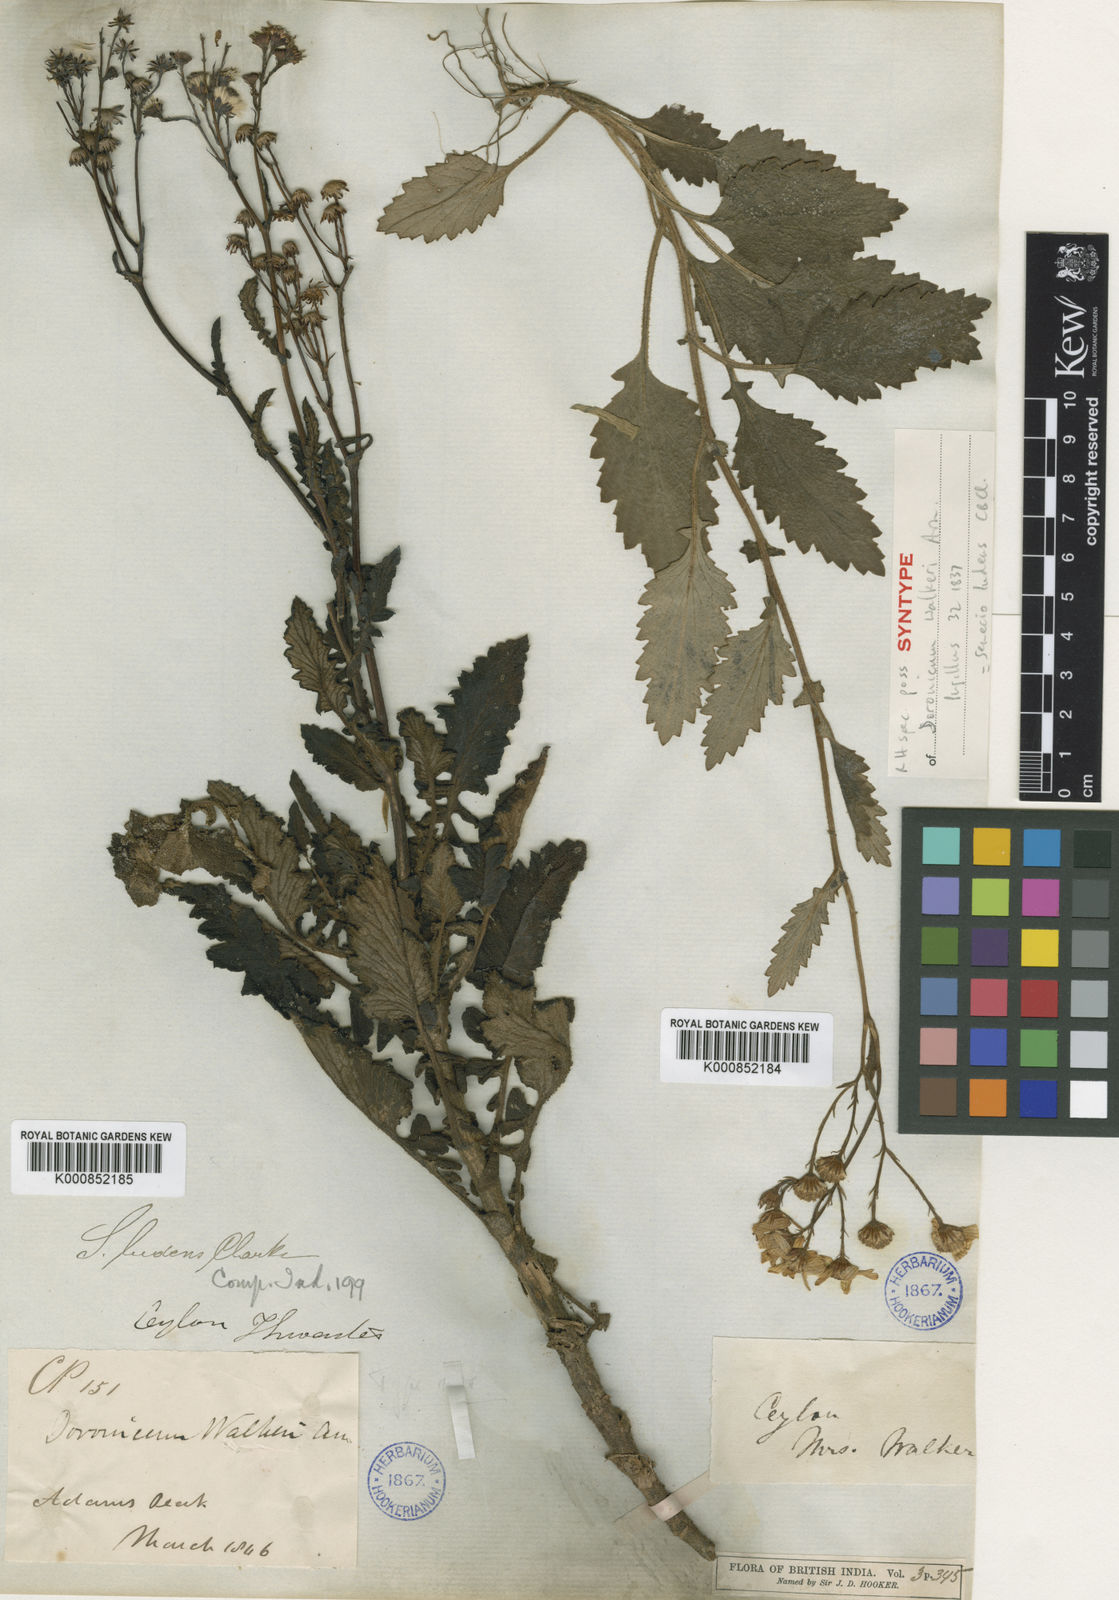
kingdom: Plantae
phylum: Tracheophyta
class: Magnoliopsida
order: Asterales
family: Asteraceae
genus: Senecio
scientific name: Senecio ludens
